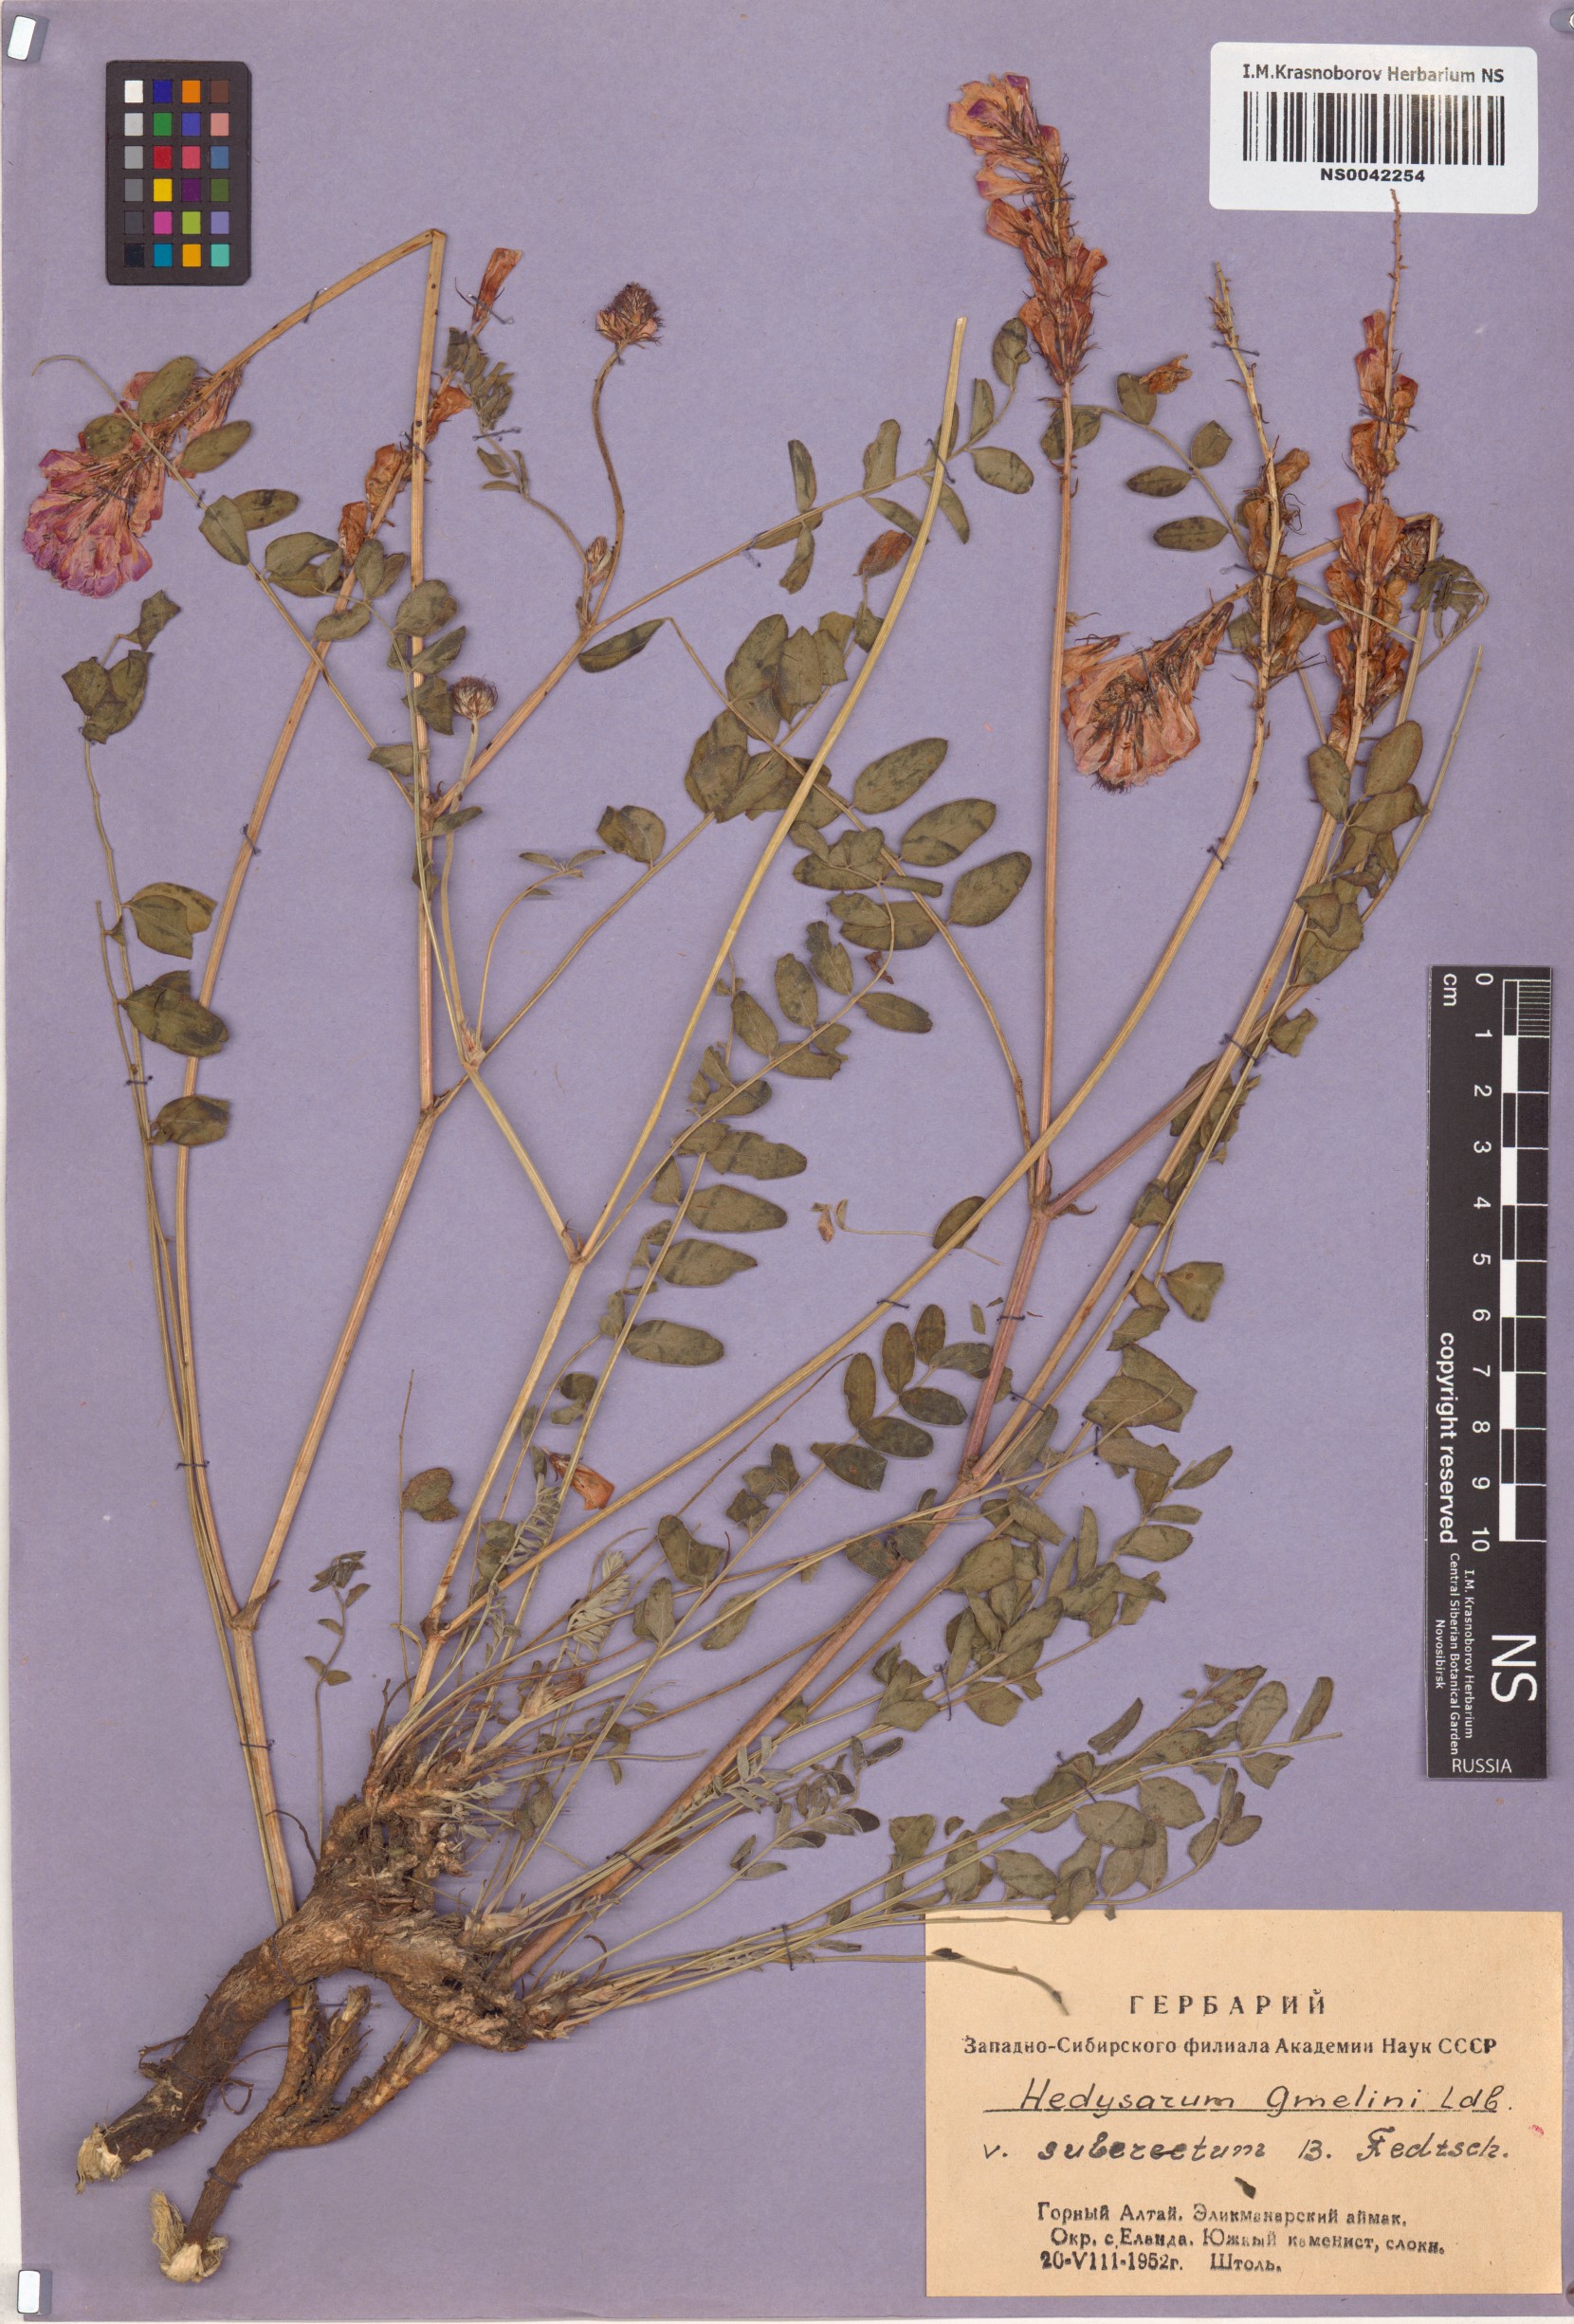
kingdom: Plantae
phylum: Tracheophyta
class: Magnoliopsida
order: Fabales
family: Fabaceae
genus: Hedysarum
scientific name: Hedysarum gmelinii
